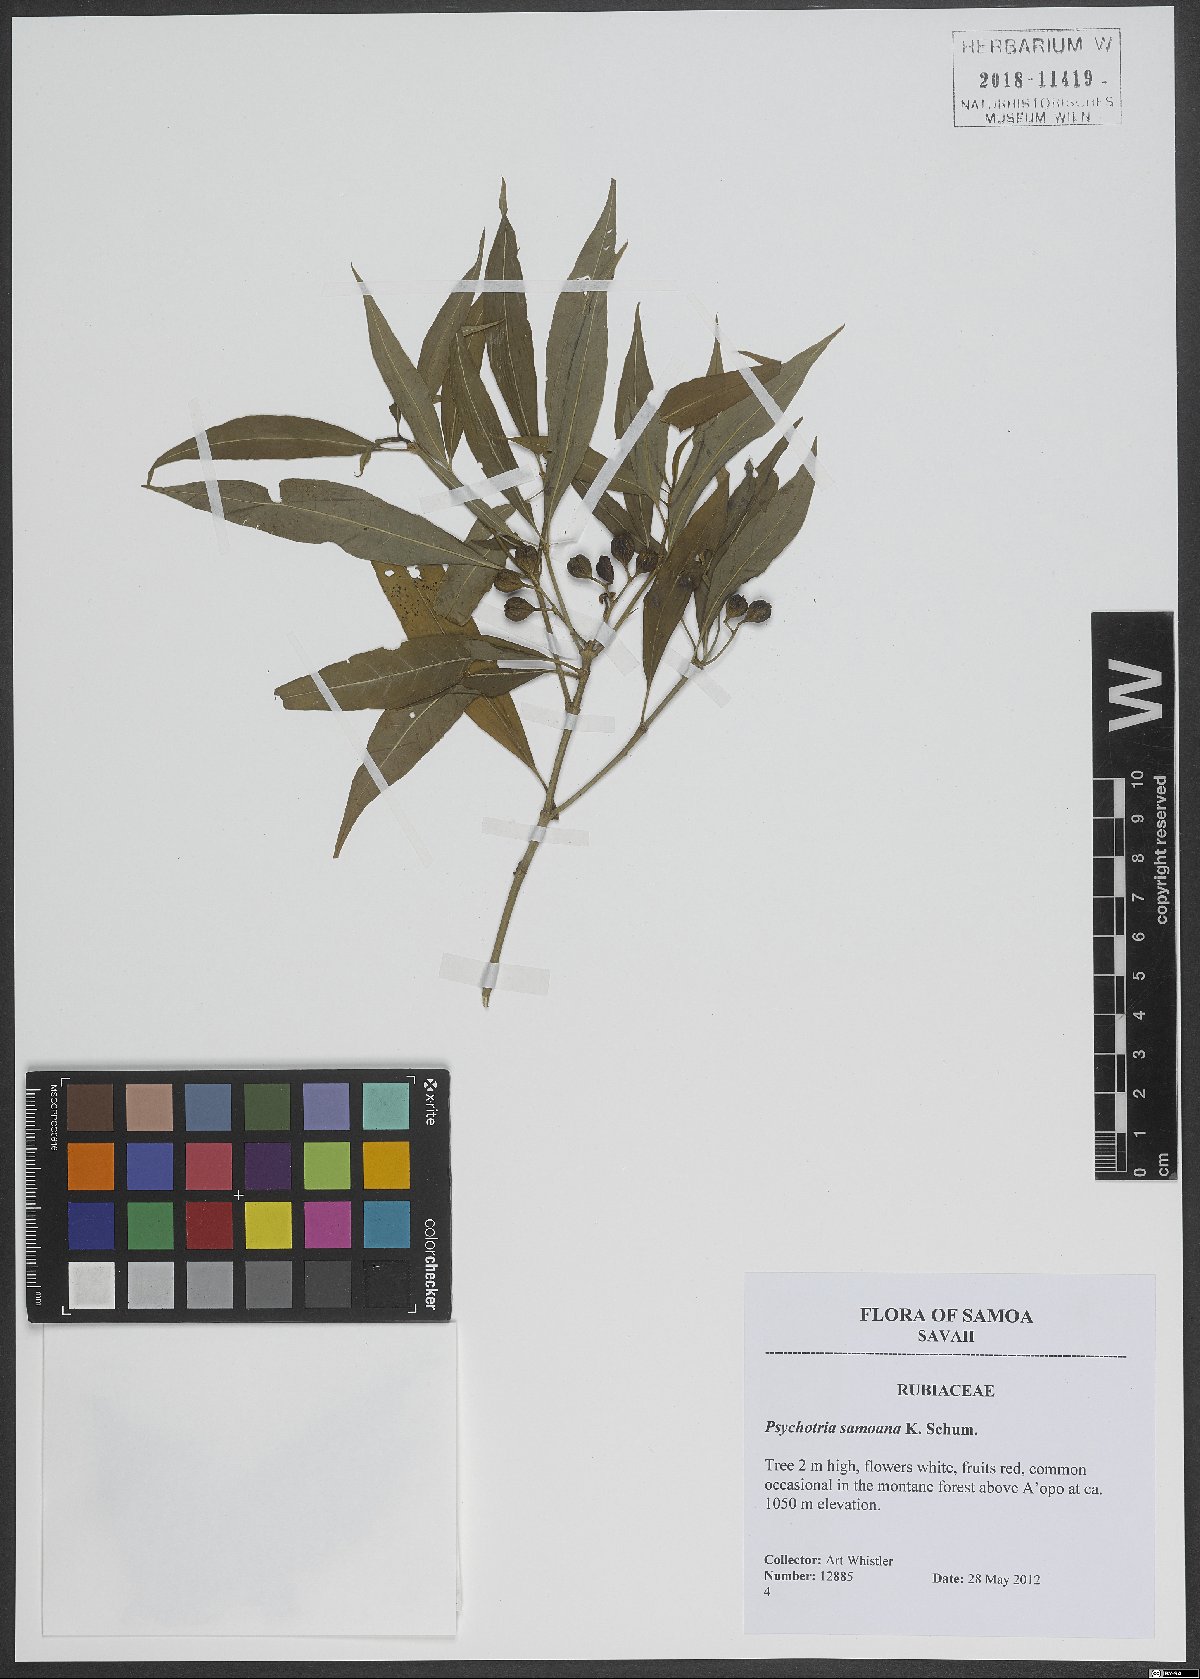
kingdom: Plantae
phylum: Tracheophyta
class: Magnoliopsida
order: Gentianales
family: Rubiaceae
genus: Eumachia
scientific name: Eumachia samoana
